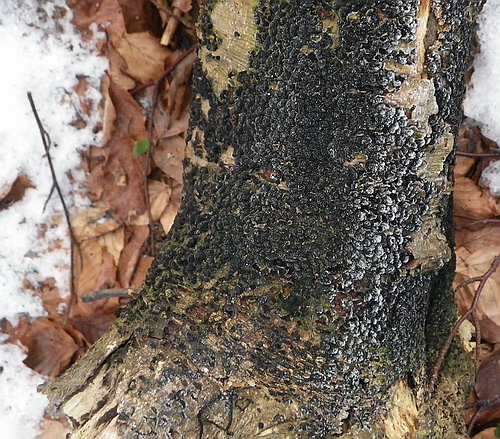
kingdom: Fungi
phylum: Ascomycota
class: Sordariomycetes
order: Xylariales
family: Melogrammataceae
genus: Melogramma
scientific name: Melogramma spiniferum
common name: bøgefod-kulhals
